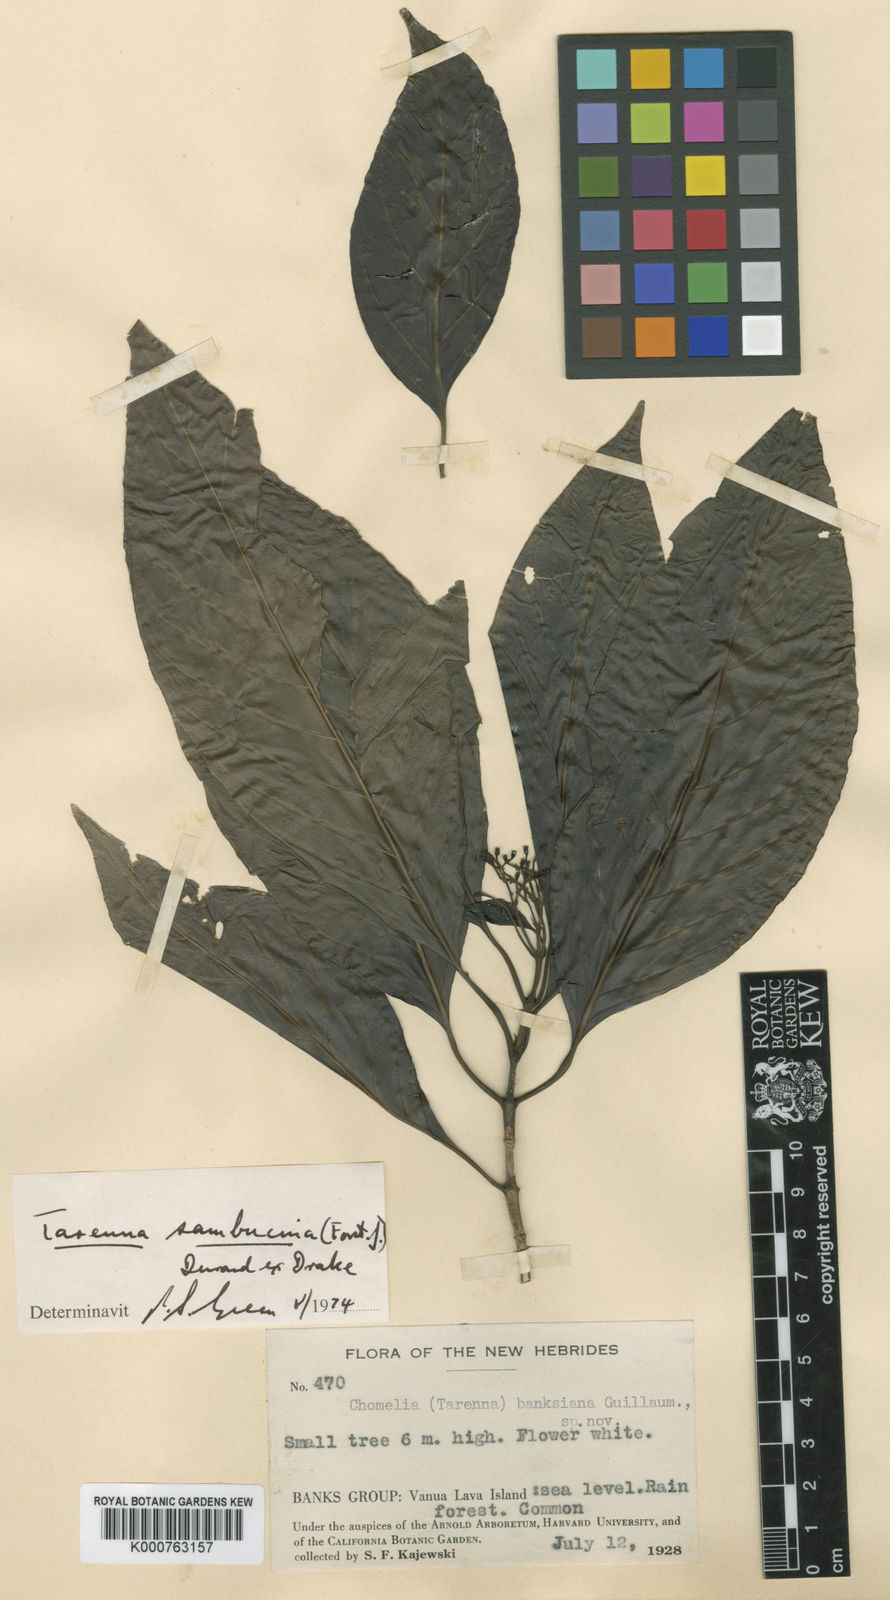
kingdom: Plantae
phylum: Tracheophyta
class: Magnoliopsida
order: Gentianales
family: Rubiaceae
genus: Tarenna
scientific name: Tarenna sambucina
